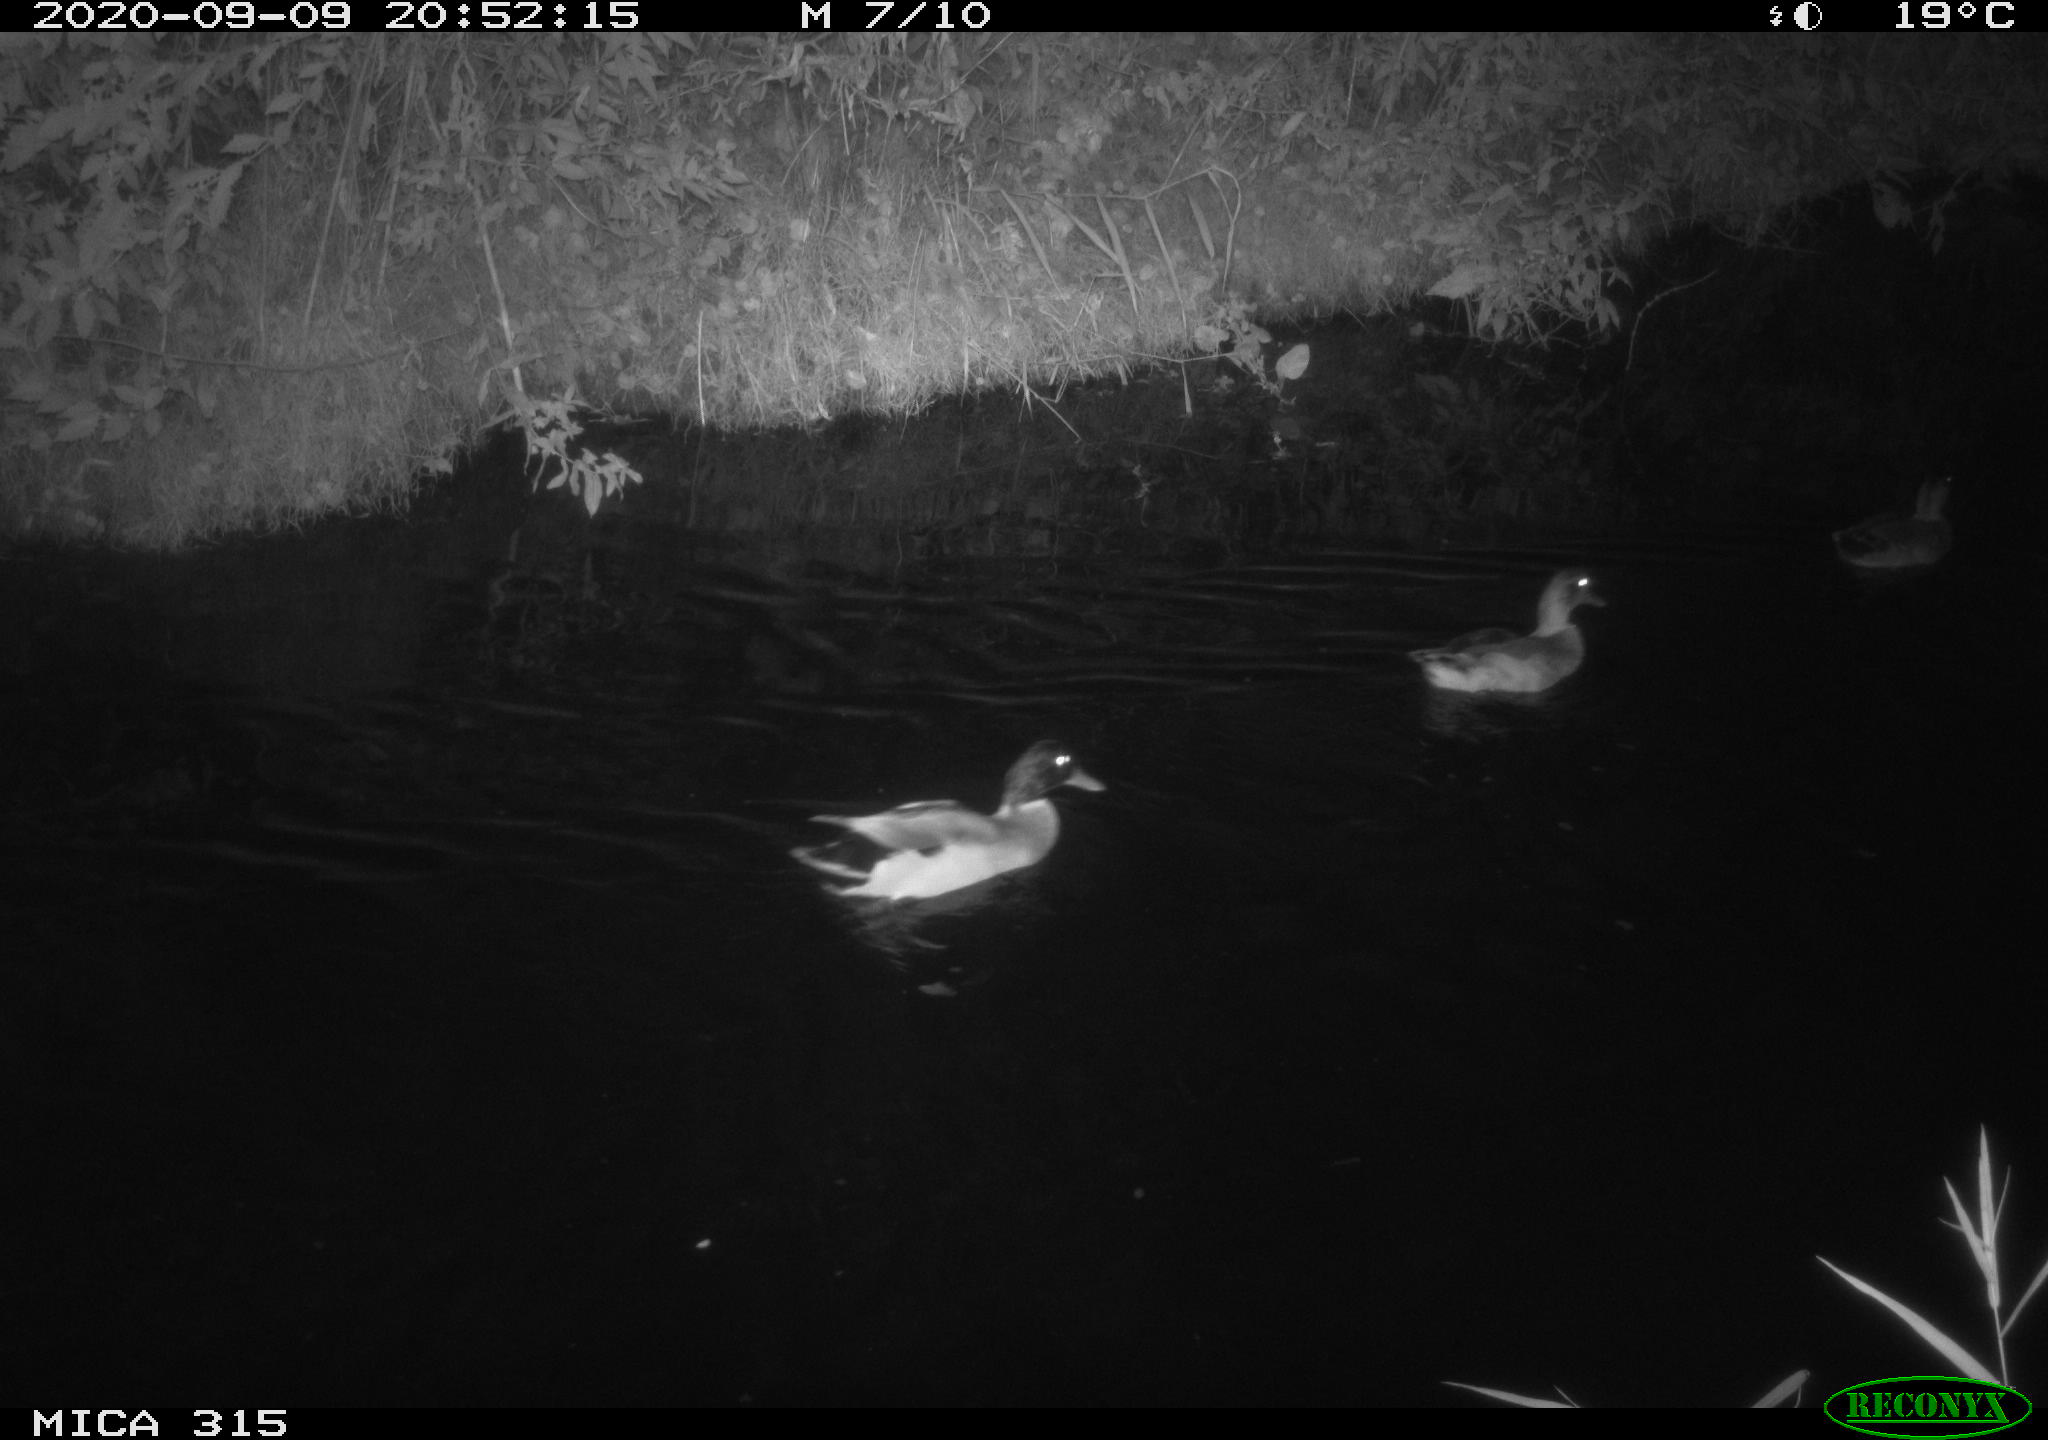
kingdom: Animalia
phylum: Chordata
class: Aves
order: Anseriformes
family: Anatidae
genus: Anas
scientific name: Anas platyrhynchos
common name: Mallard
